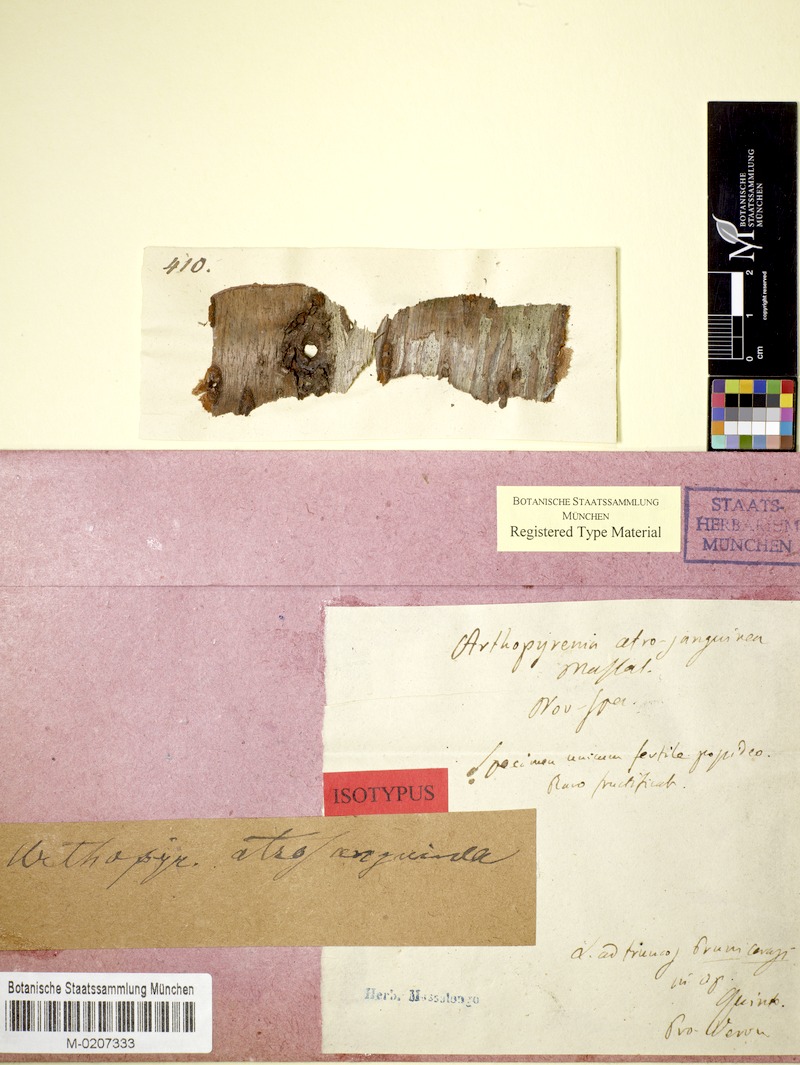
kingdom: Fungi
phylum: Ascomycota
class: Dothideomycetes
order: Pleosporales
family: Naetrocymbaceae
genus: Naetrocymbe
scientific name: Naetrocymbe punctiformis
